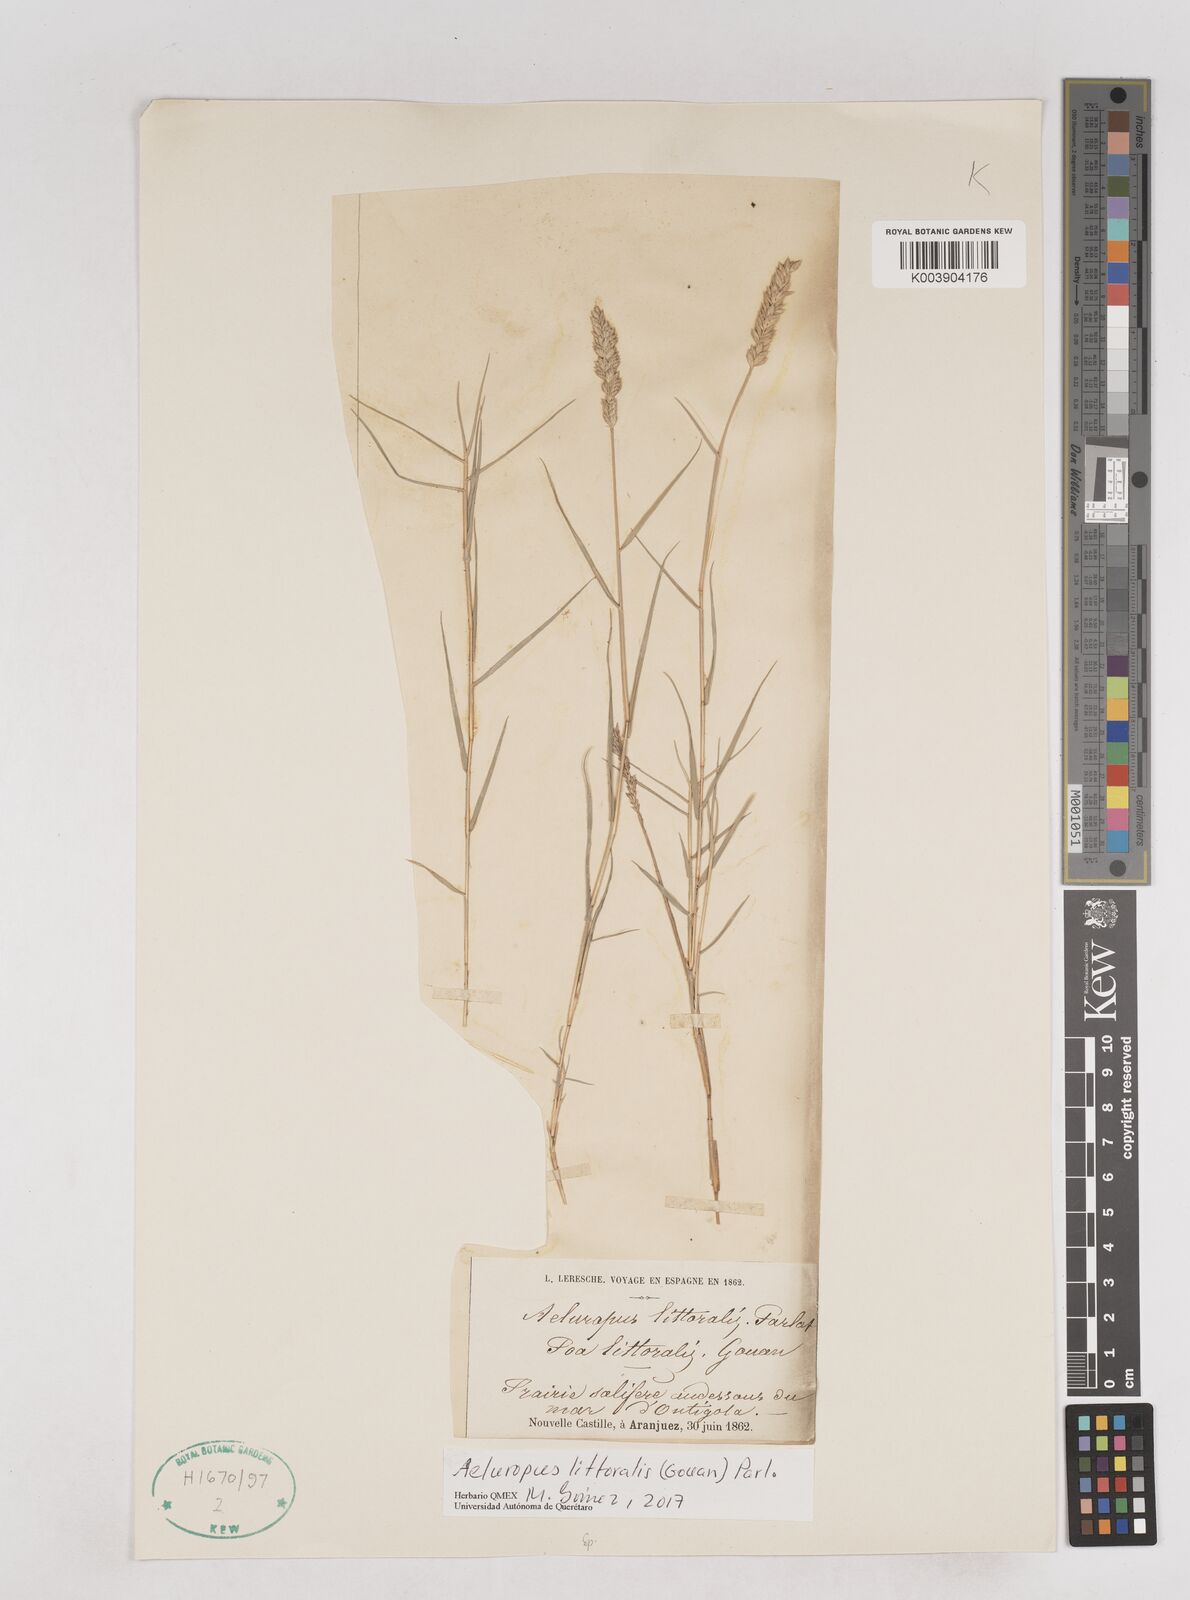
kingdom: Plantae
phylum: Tracheophyta
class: Liliopsida
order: Poales
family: Poaceae
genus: Aeluropus
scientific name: Aeluropus littoralis
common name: Indian walnut
